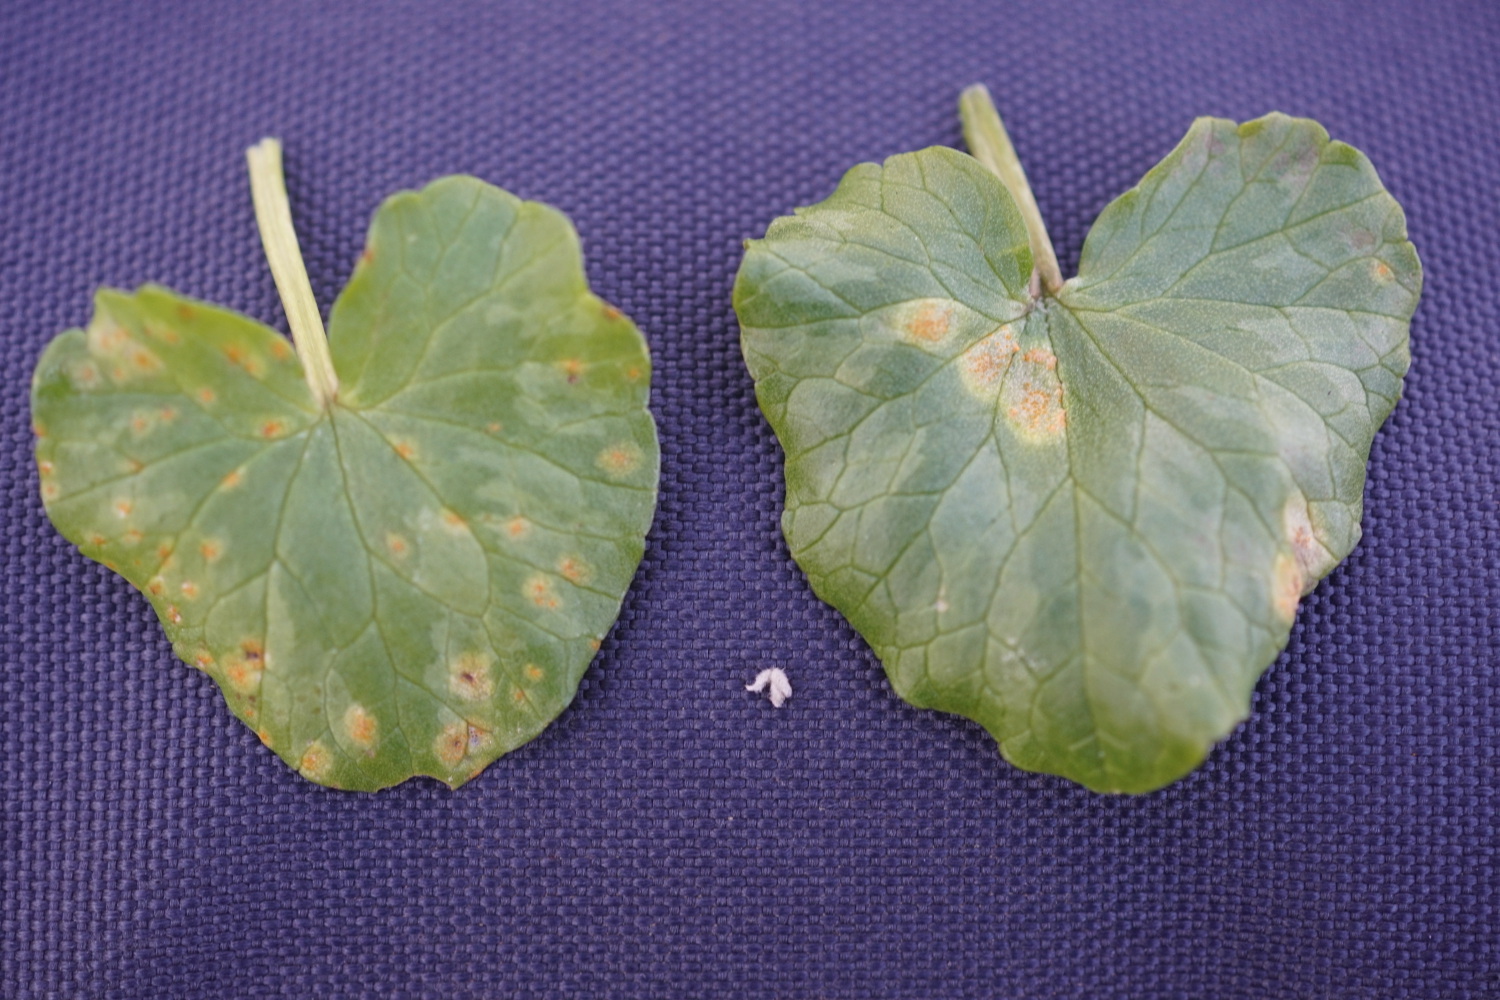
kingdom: Fungi
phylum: Basidiomycota
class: Pucciniomycetes
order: Pucciniales
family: Pucciniaceae
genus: Uromyces
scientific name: Uromyces dactylidis
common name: ranunkel-encellerust
